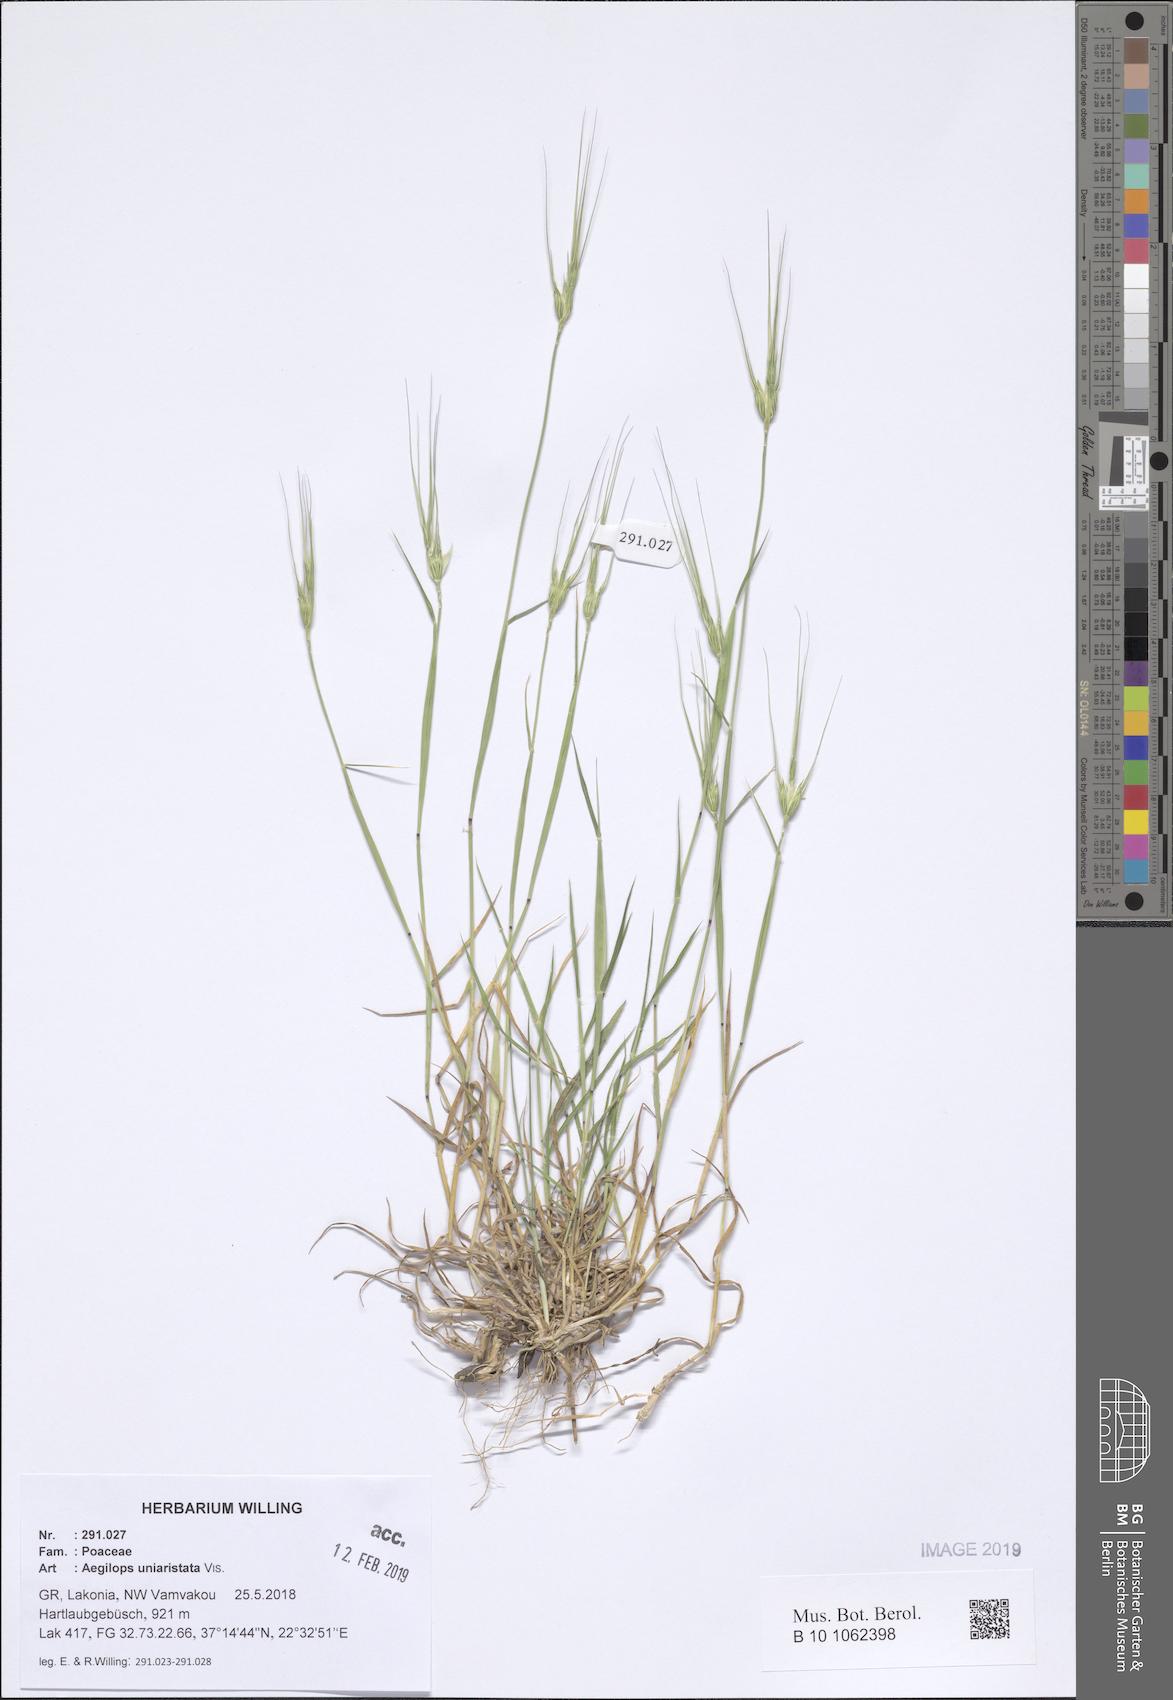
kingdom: Plantae
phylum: Tracheophyta
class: Liliopsida
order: Poales
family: Poaceae
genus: Aegilops
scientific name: Aegilops uniaristata
